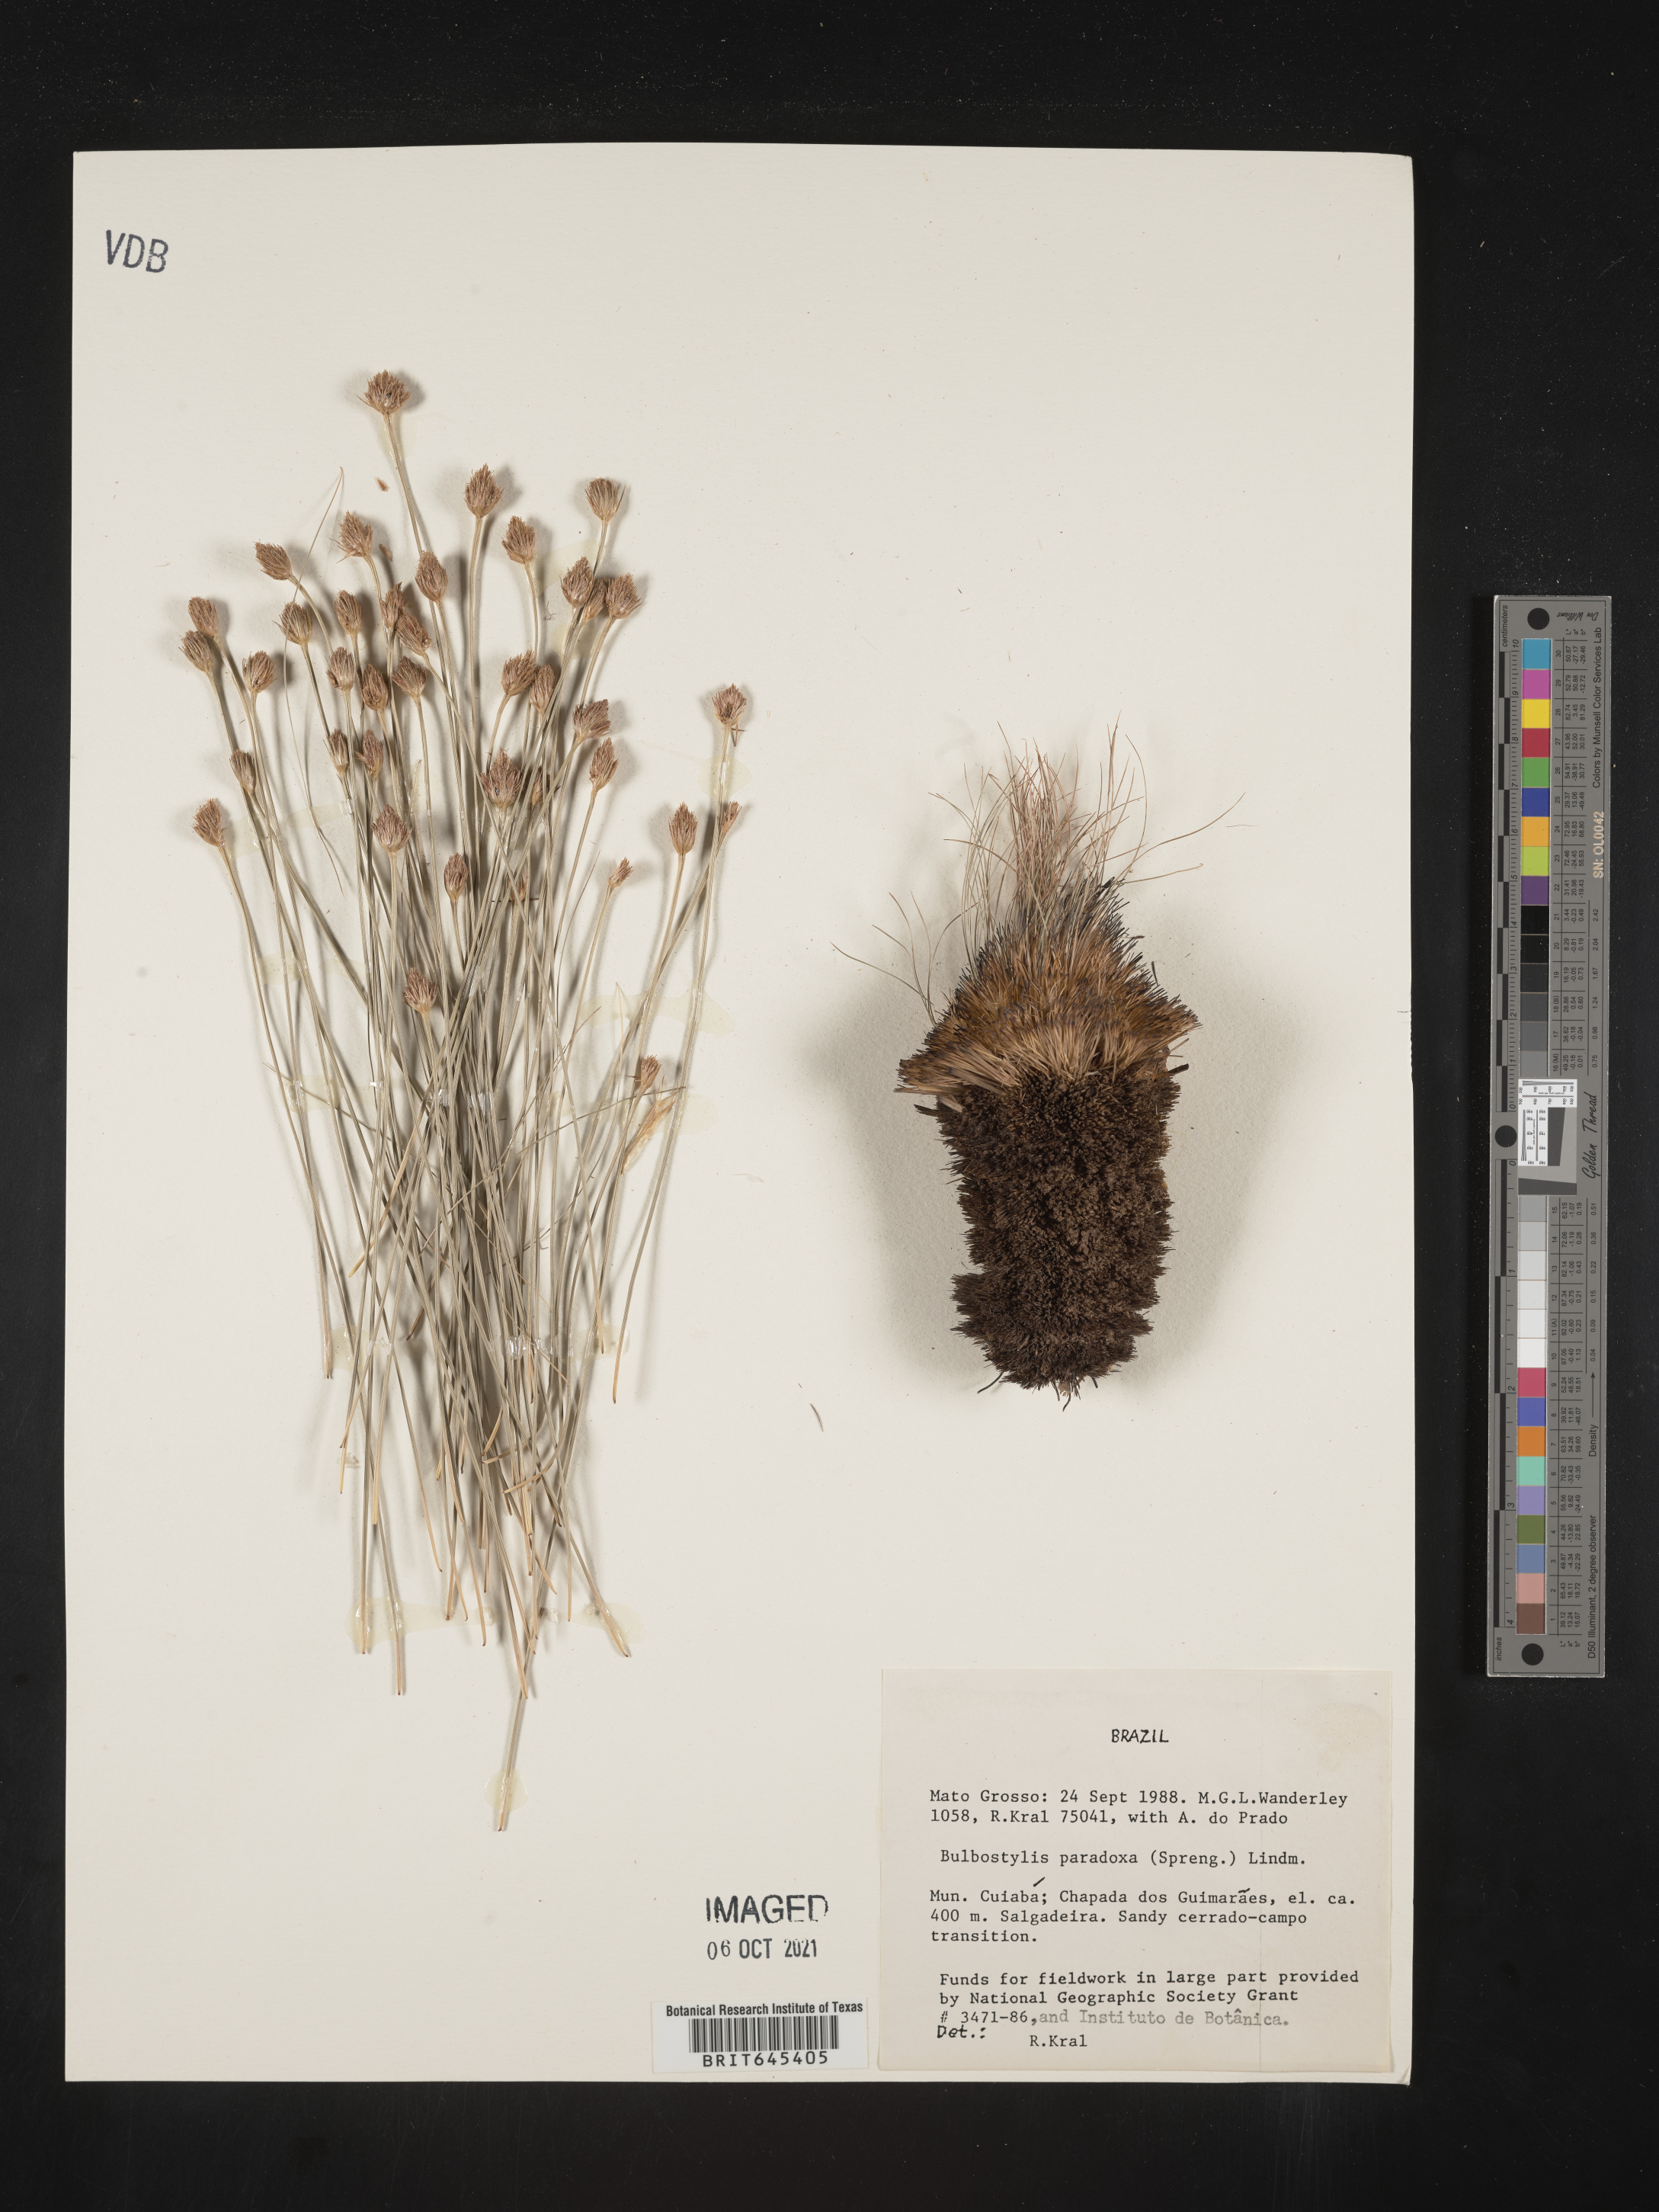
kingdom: Plantae
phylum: Tracheophyta
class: Liliopsida
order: Poales
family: Cyperaceae
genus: Bulbostylis
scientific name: Bulbostylis paradoxa
